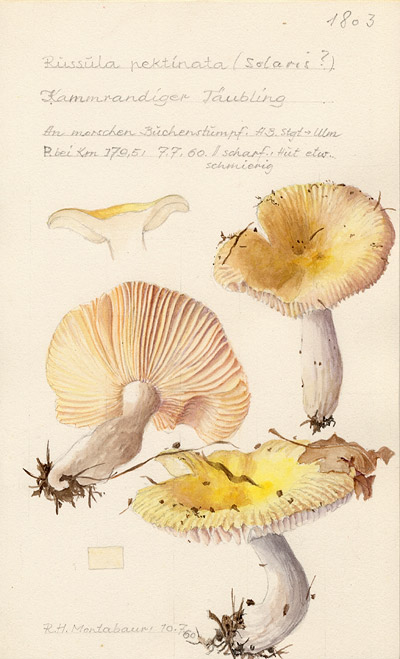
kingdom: Fungi
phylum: Basidiomycota
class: Agaricomycetes
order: Russulales
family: Russulaceae
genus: Russula
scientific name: Russula solaris
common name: Sunny brittlegill
